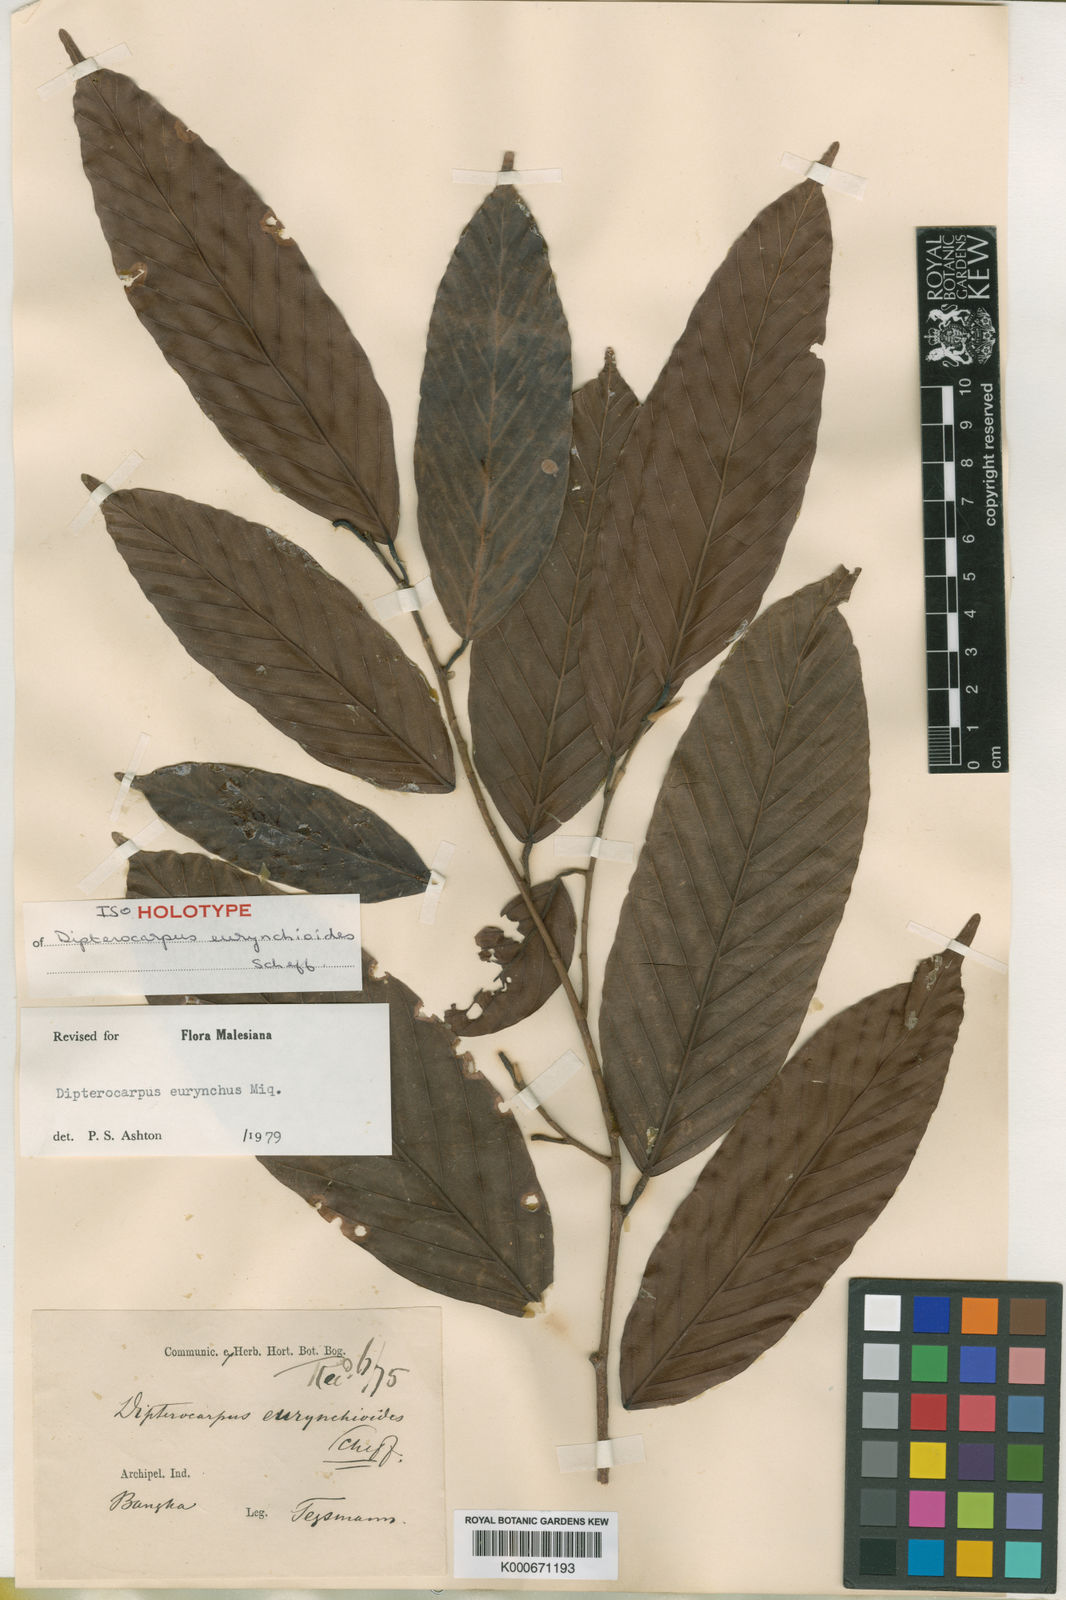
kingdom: Plantae
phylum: Tracheophyta
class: Magnoliopsida
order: Malvales
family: Dipterocarpaceae
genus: Dipterocarpus
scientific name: Dipterocarpus
